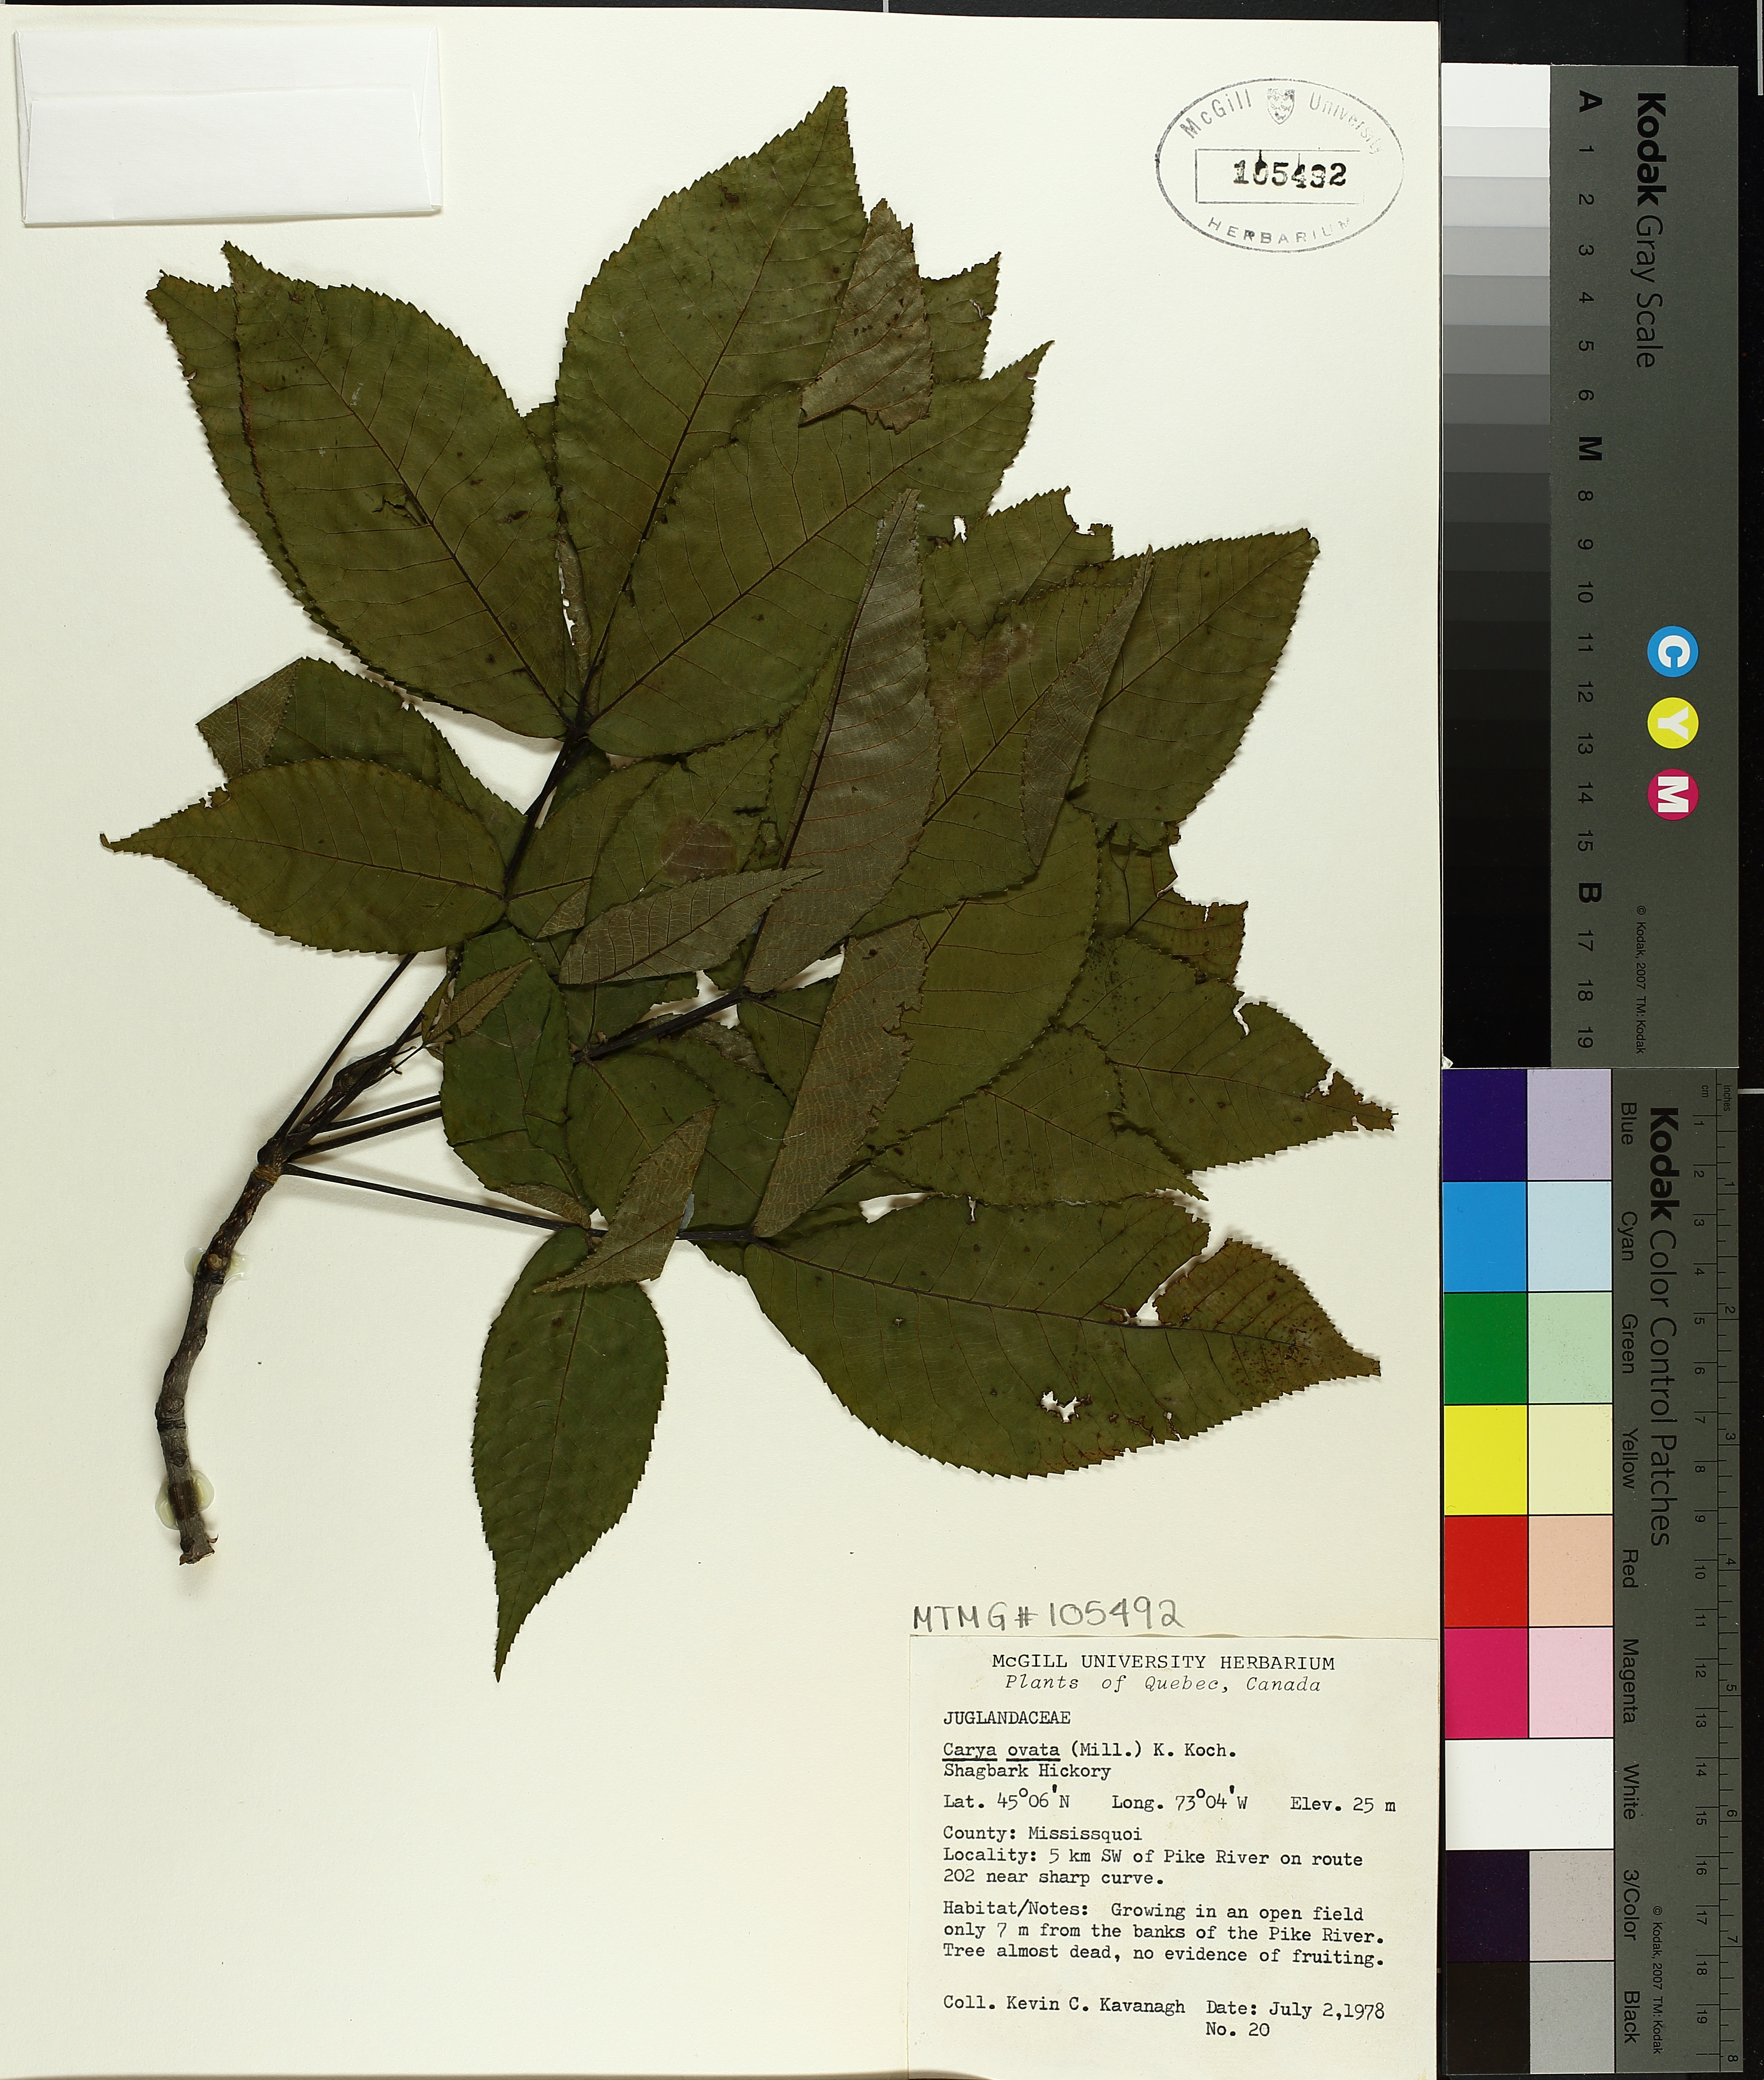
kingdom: Plantae
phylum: Tracheophyta
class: Magnoliopsida
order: Fagales
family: Juglandaceae
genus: Carya
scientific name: Carya ovata
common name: Shagbark hickory
